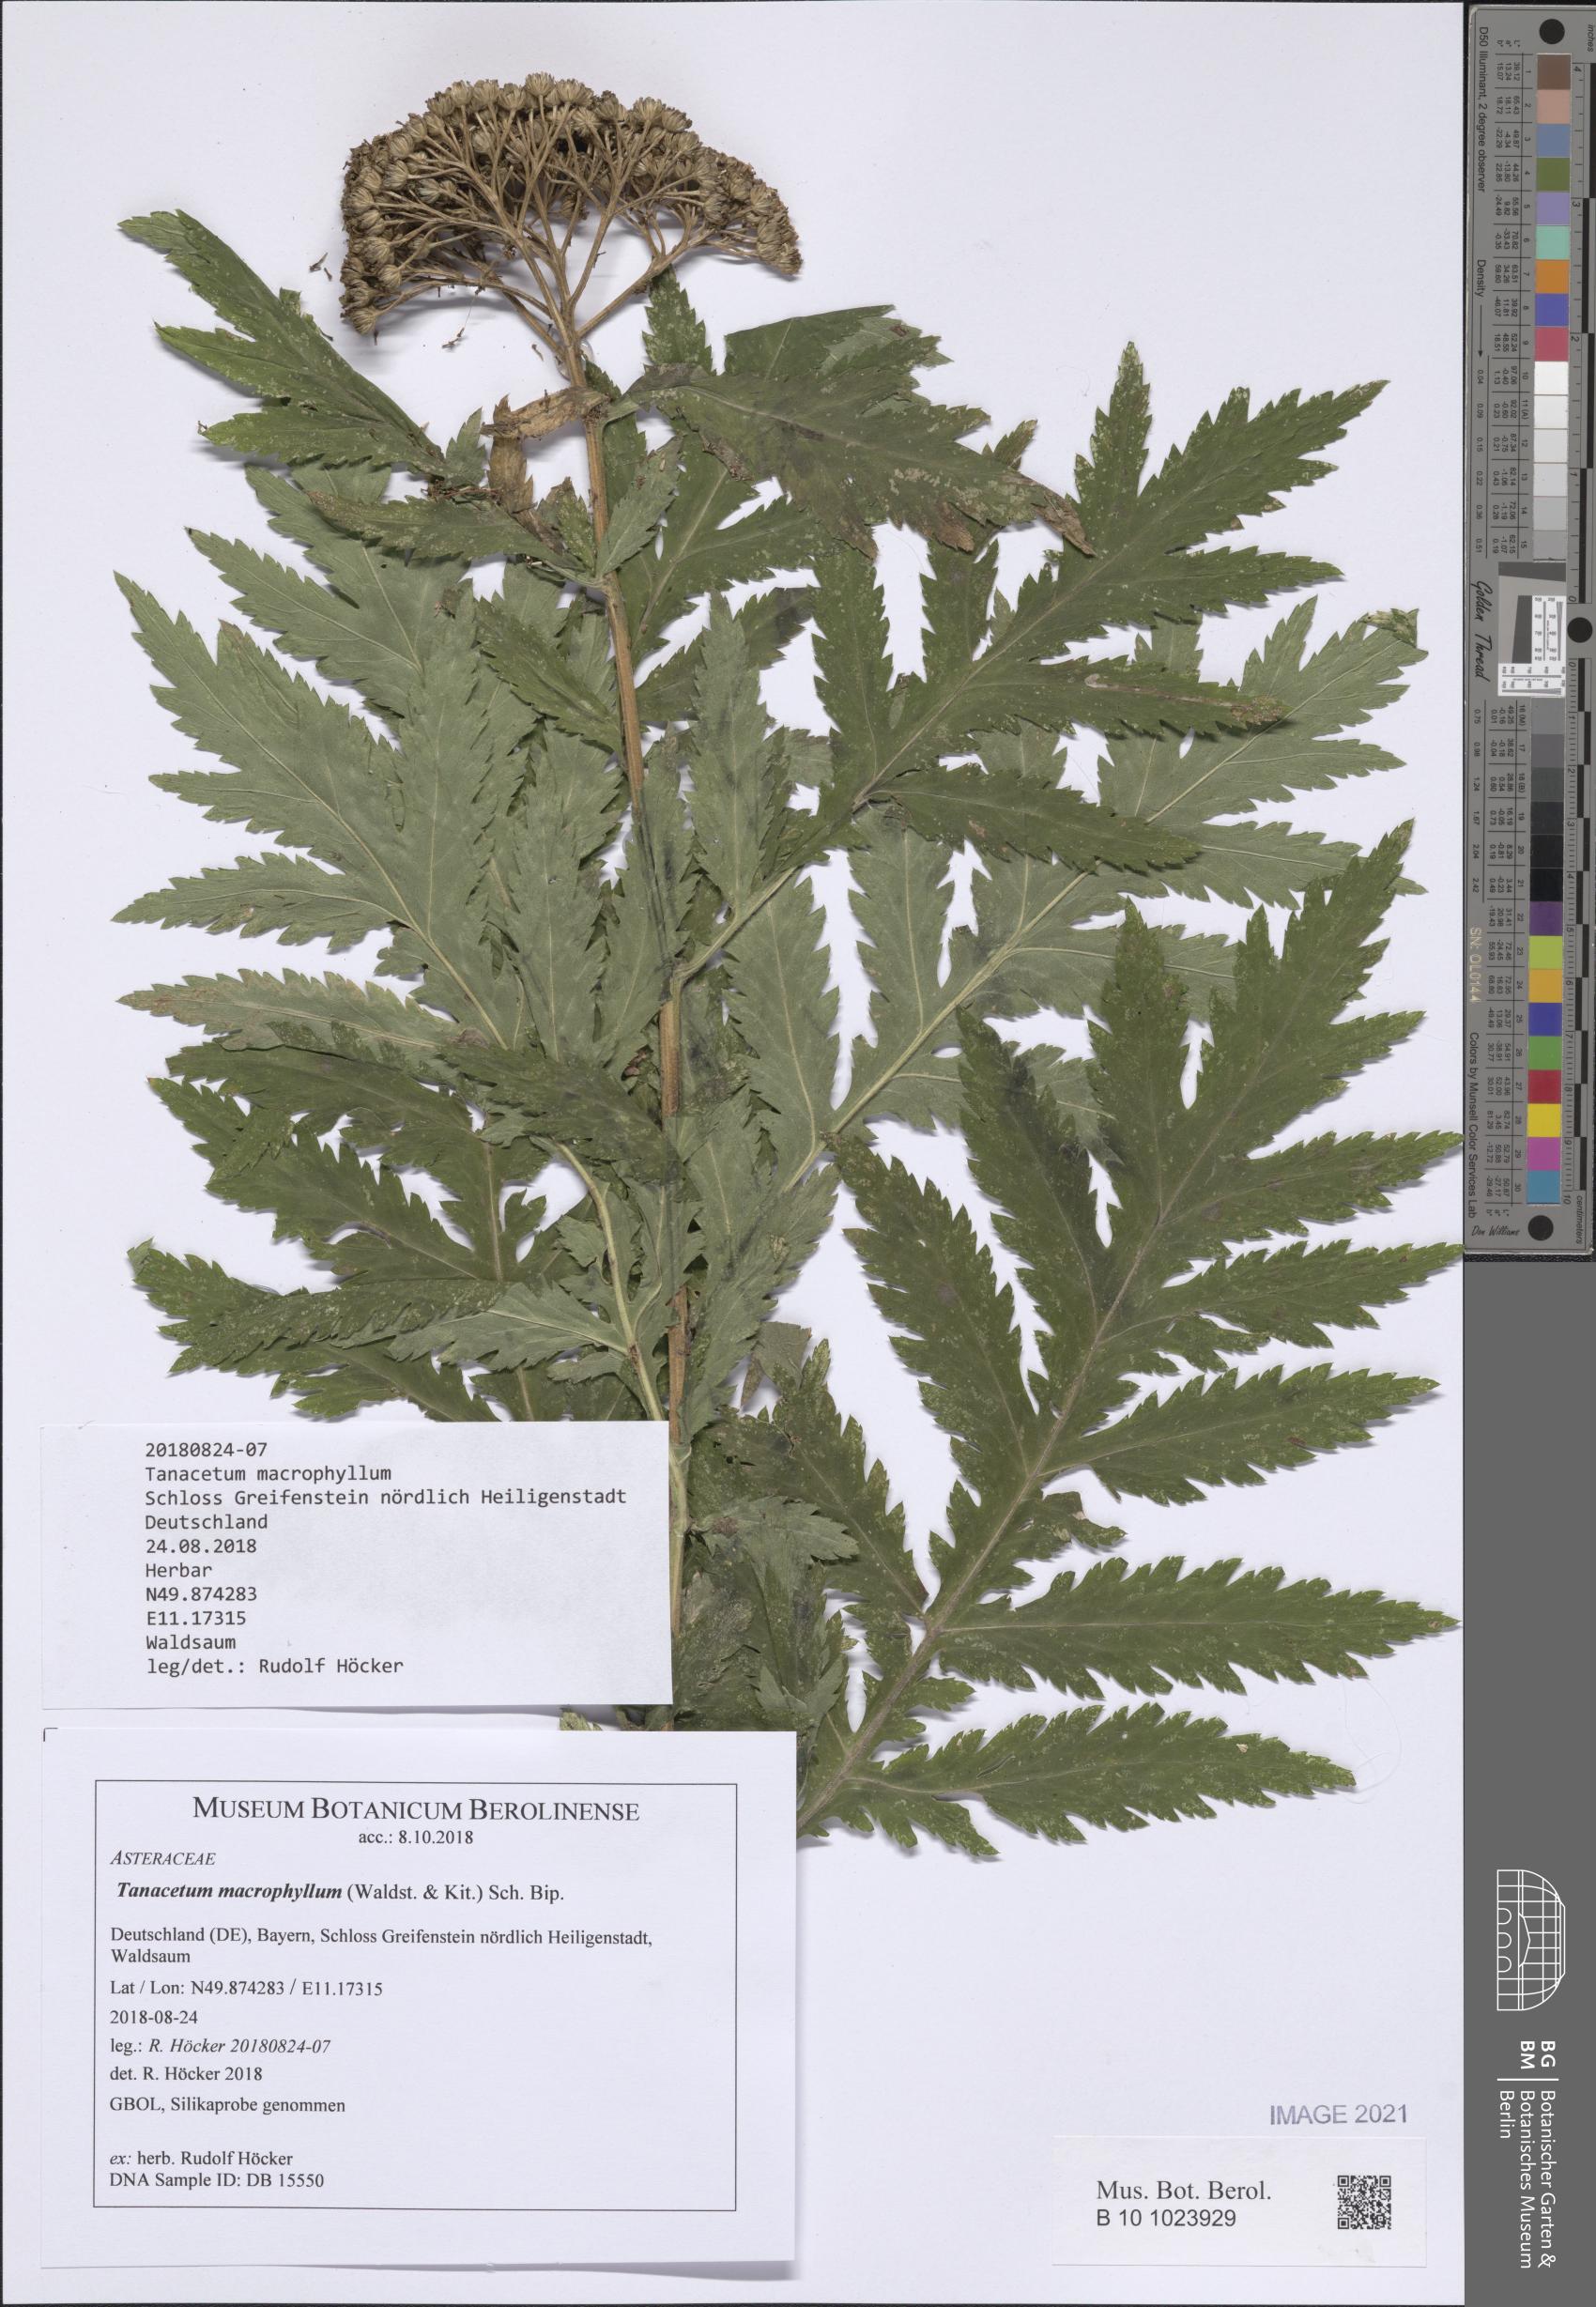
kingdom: Plantae
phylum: Tracheophyta
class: Magnoliopsida
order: Asterales
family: Asteraceae
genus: Tanacetum
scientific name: Tanacetum macrophyllum
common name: Rayed tansy
